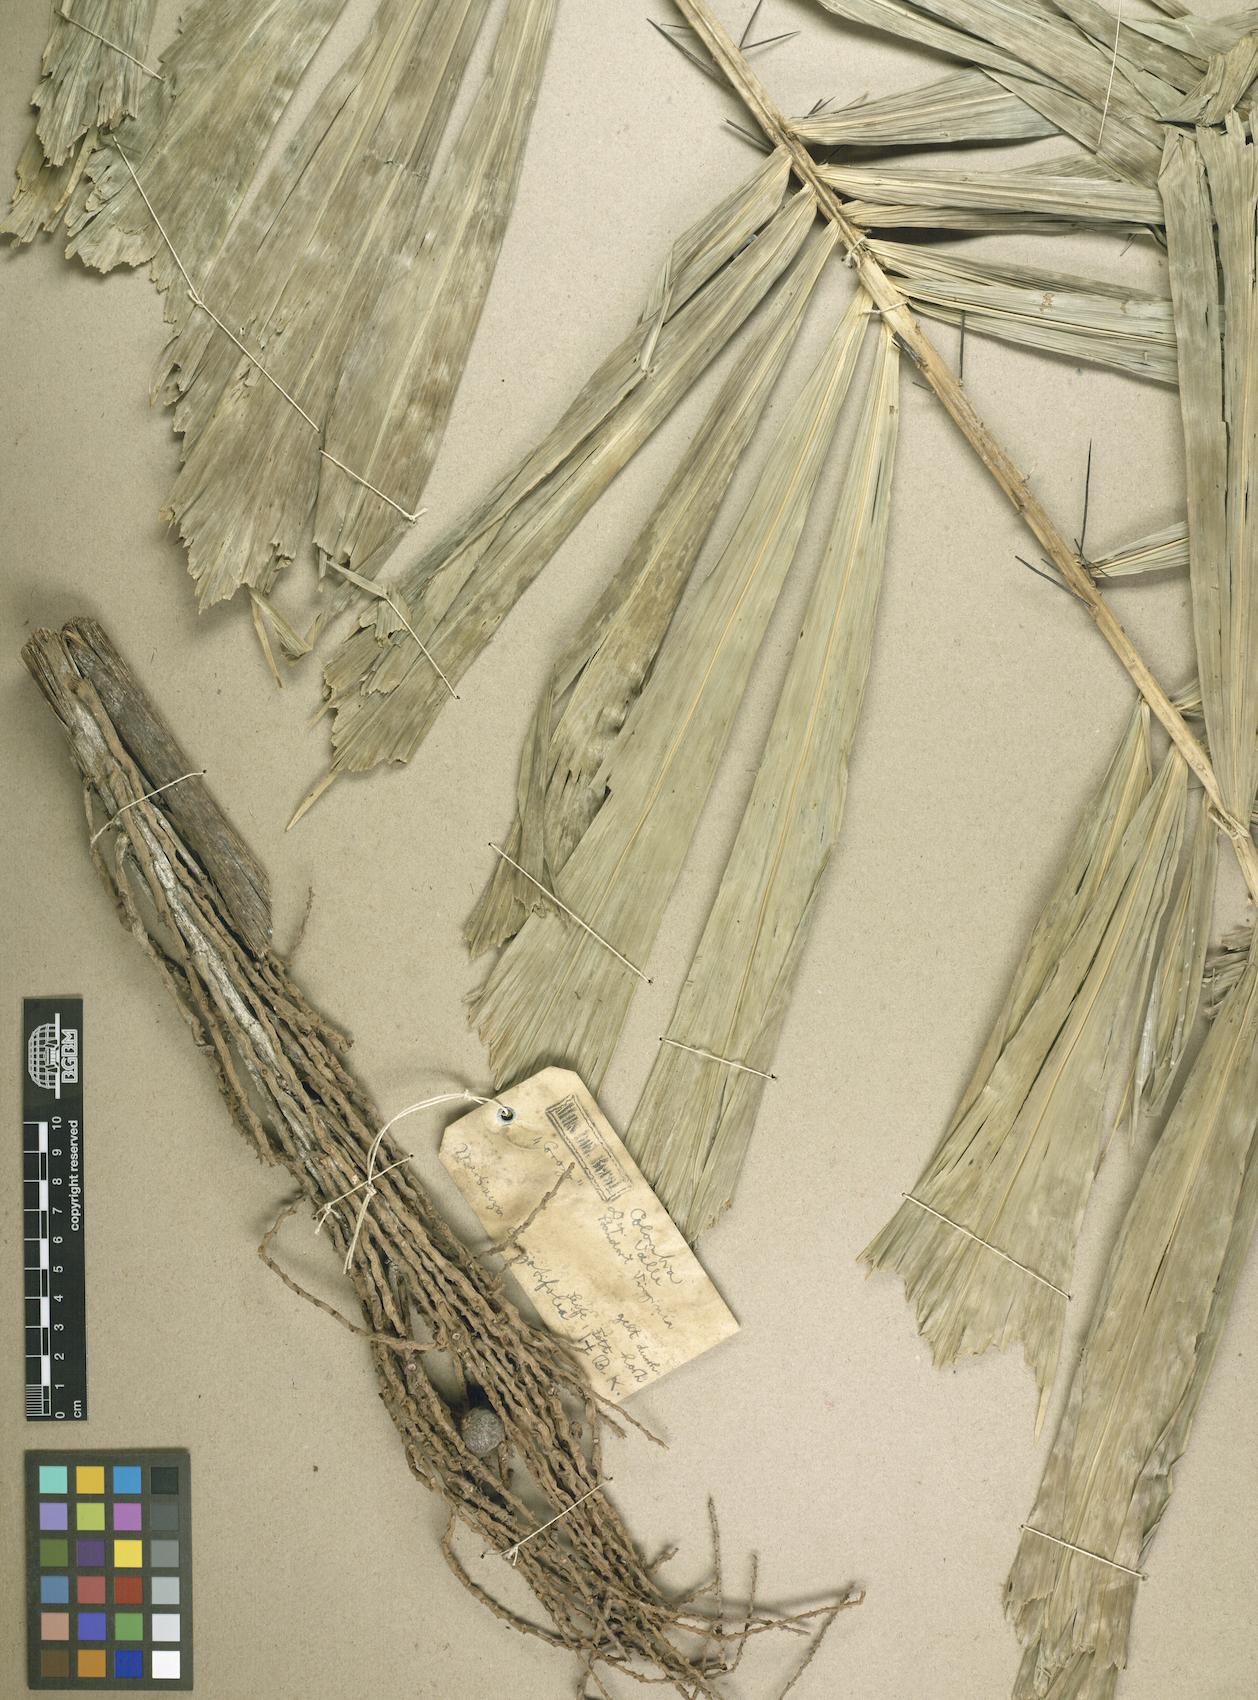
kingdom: Plantae
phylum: Tracheophyta
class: Liliopsida
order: Arecales
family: Arecaceae
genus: Aiphanes
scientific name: Aiphanes horrida
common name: Ruffle palm
